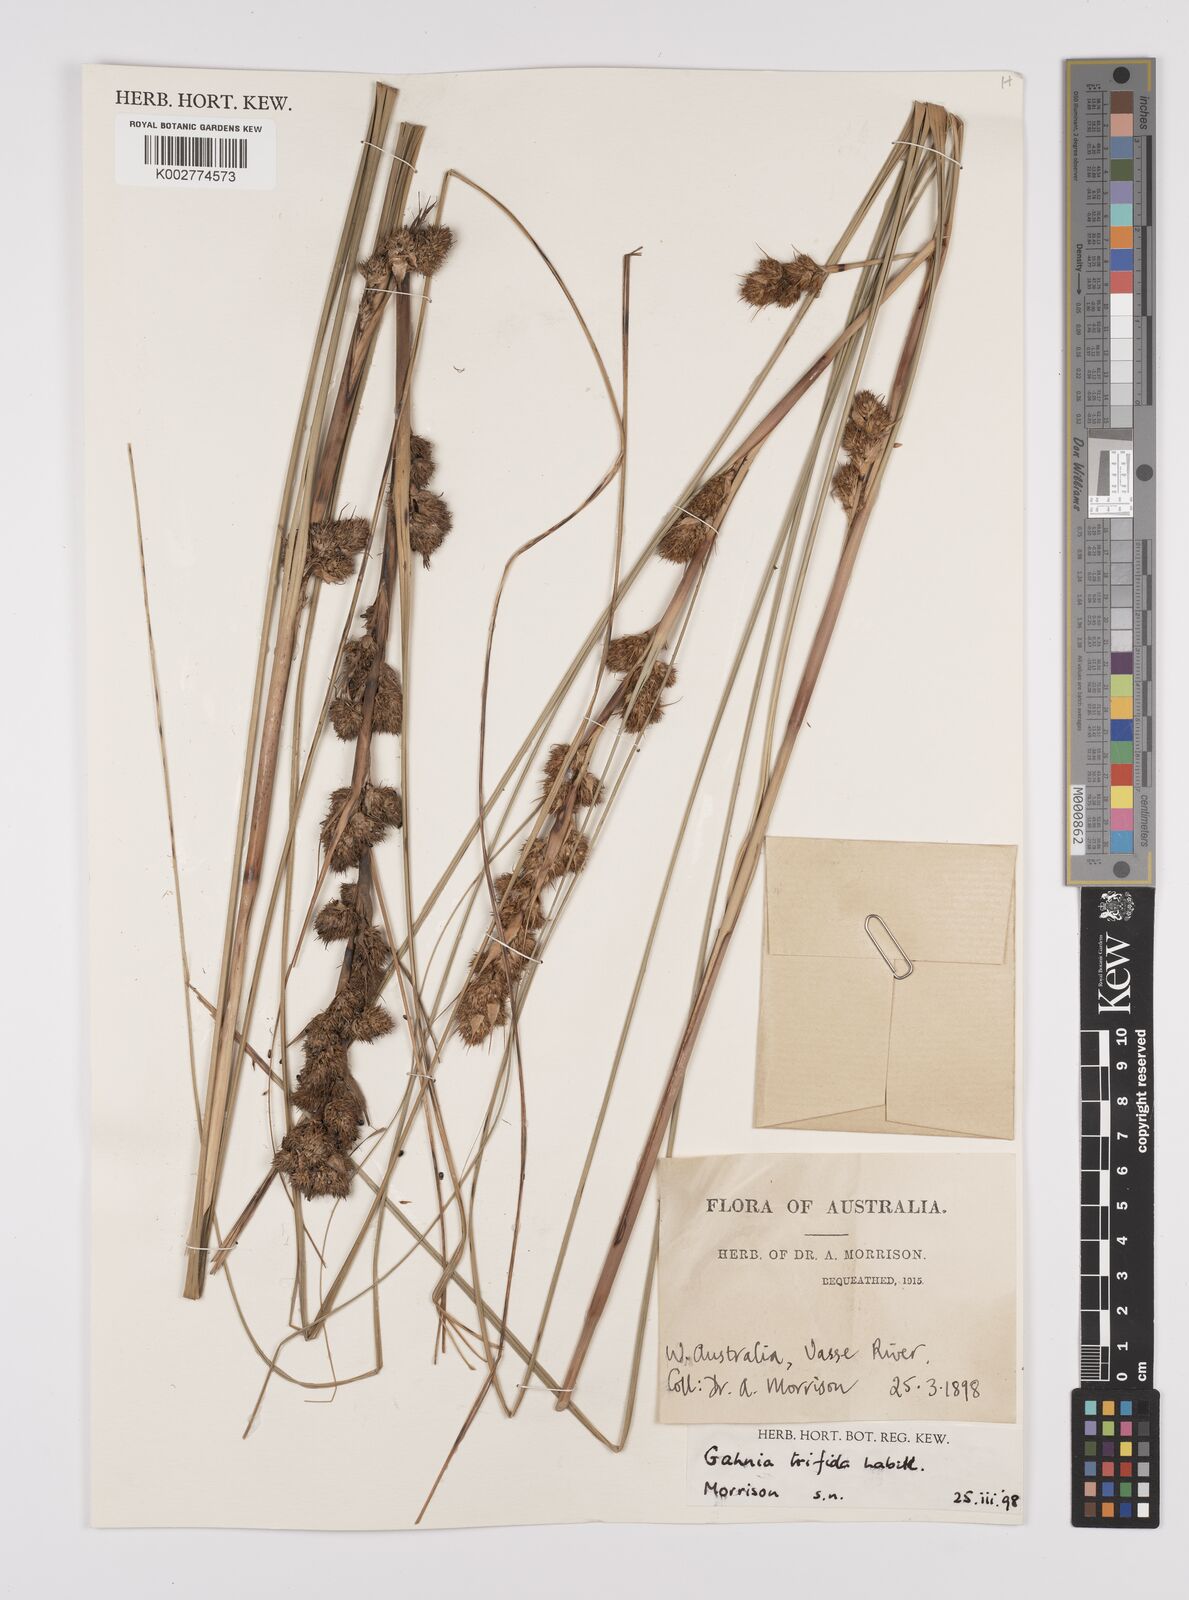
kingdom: Plantae
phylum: Tracheophyta
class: Liliopsida
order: Poales
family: Cyperaceae
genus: Gahnia
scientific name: Gahnia trifida
